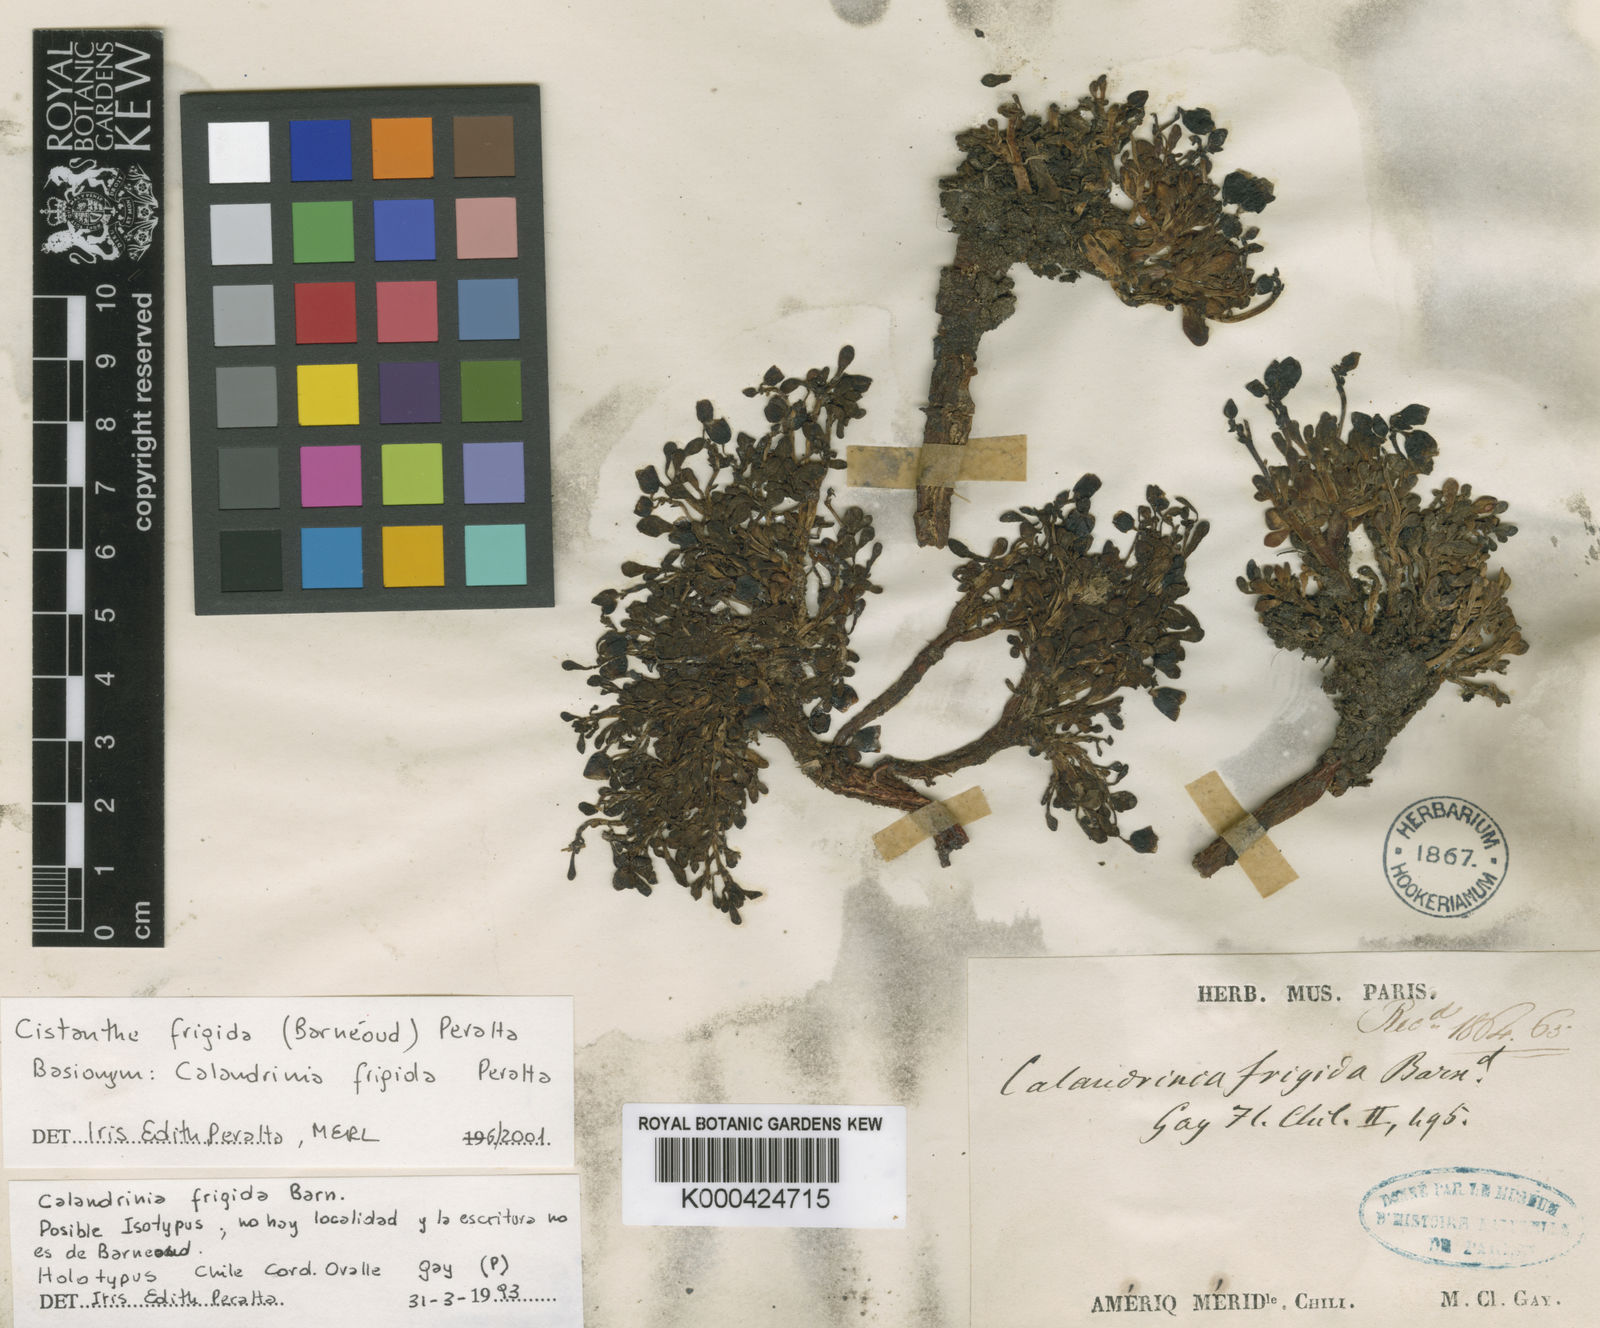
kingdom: Plantae
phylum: Tracheophyta
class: Magnoliopsida
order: Caryophyllales
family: Montiaceae
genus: Cistanthe
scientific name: Cistanthe
